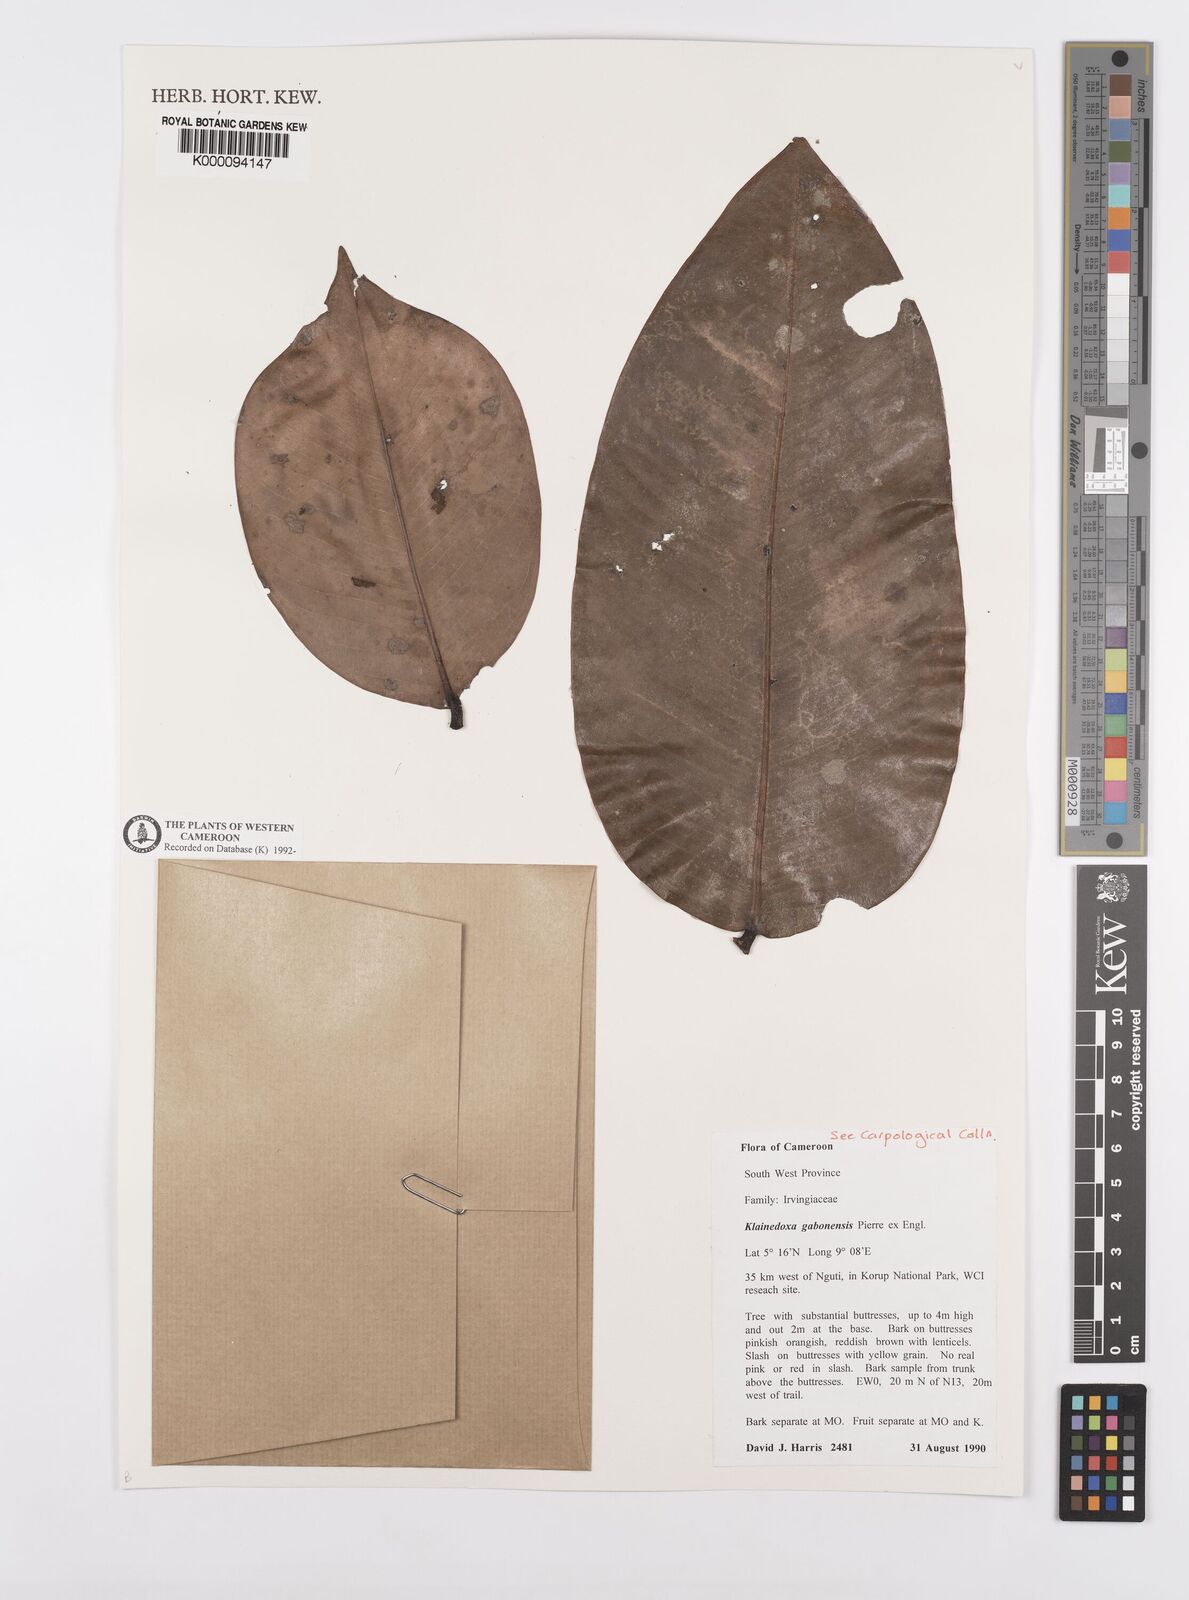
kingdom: Plantae
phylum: Tracheophyta
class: Magnoliopsida
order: Malpighiales
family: Irvingiaceae
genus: Klainedoxa
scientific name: Klainedoxa gabonensis
